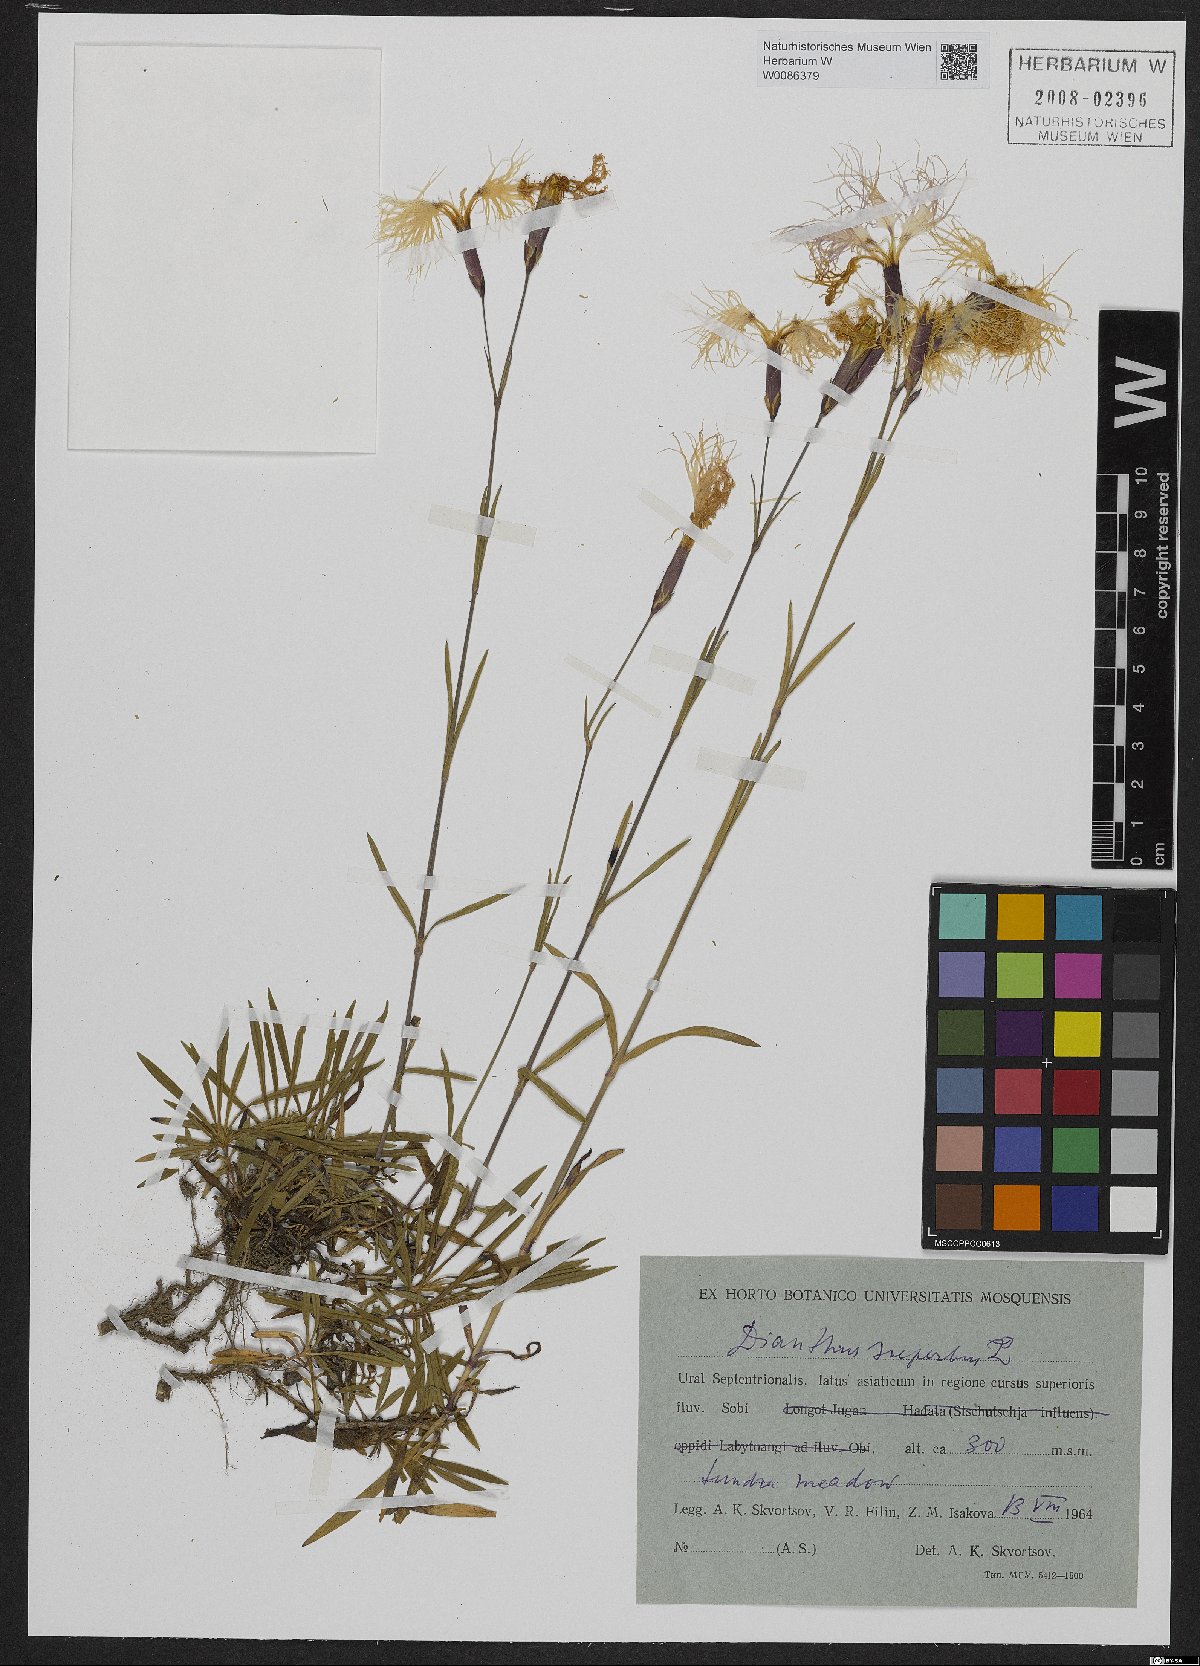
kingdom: Plantae
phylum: Tracheophyta
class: Magnoliopsida
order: Caryophyllales
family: Caryophyllaceae
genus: Dianthus
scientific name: Dianthus superbus
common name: Fringed pink
